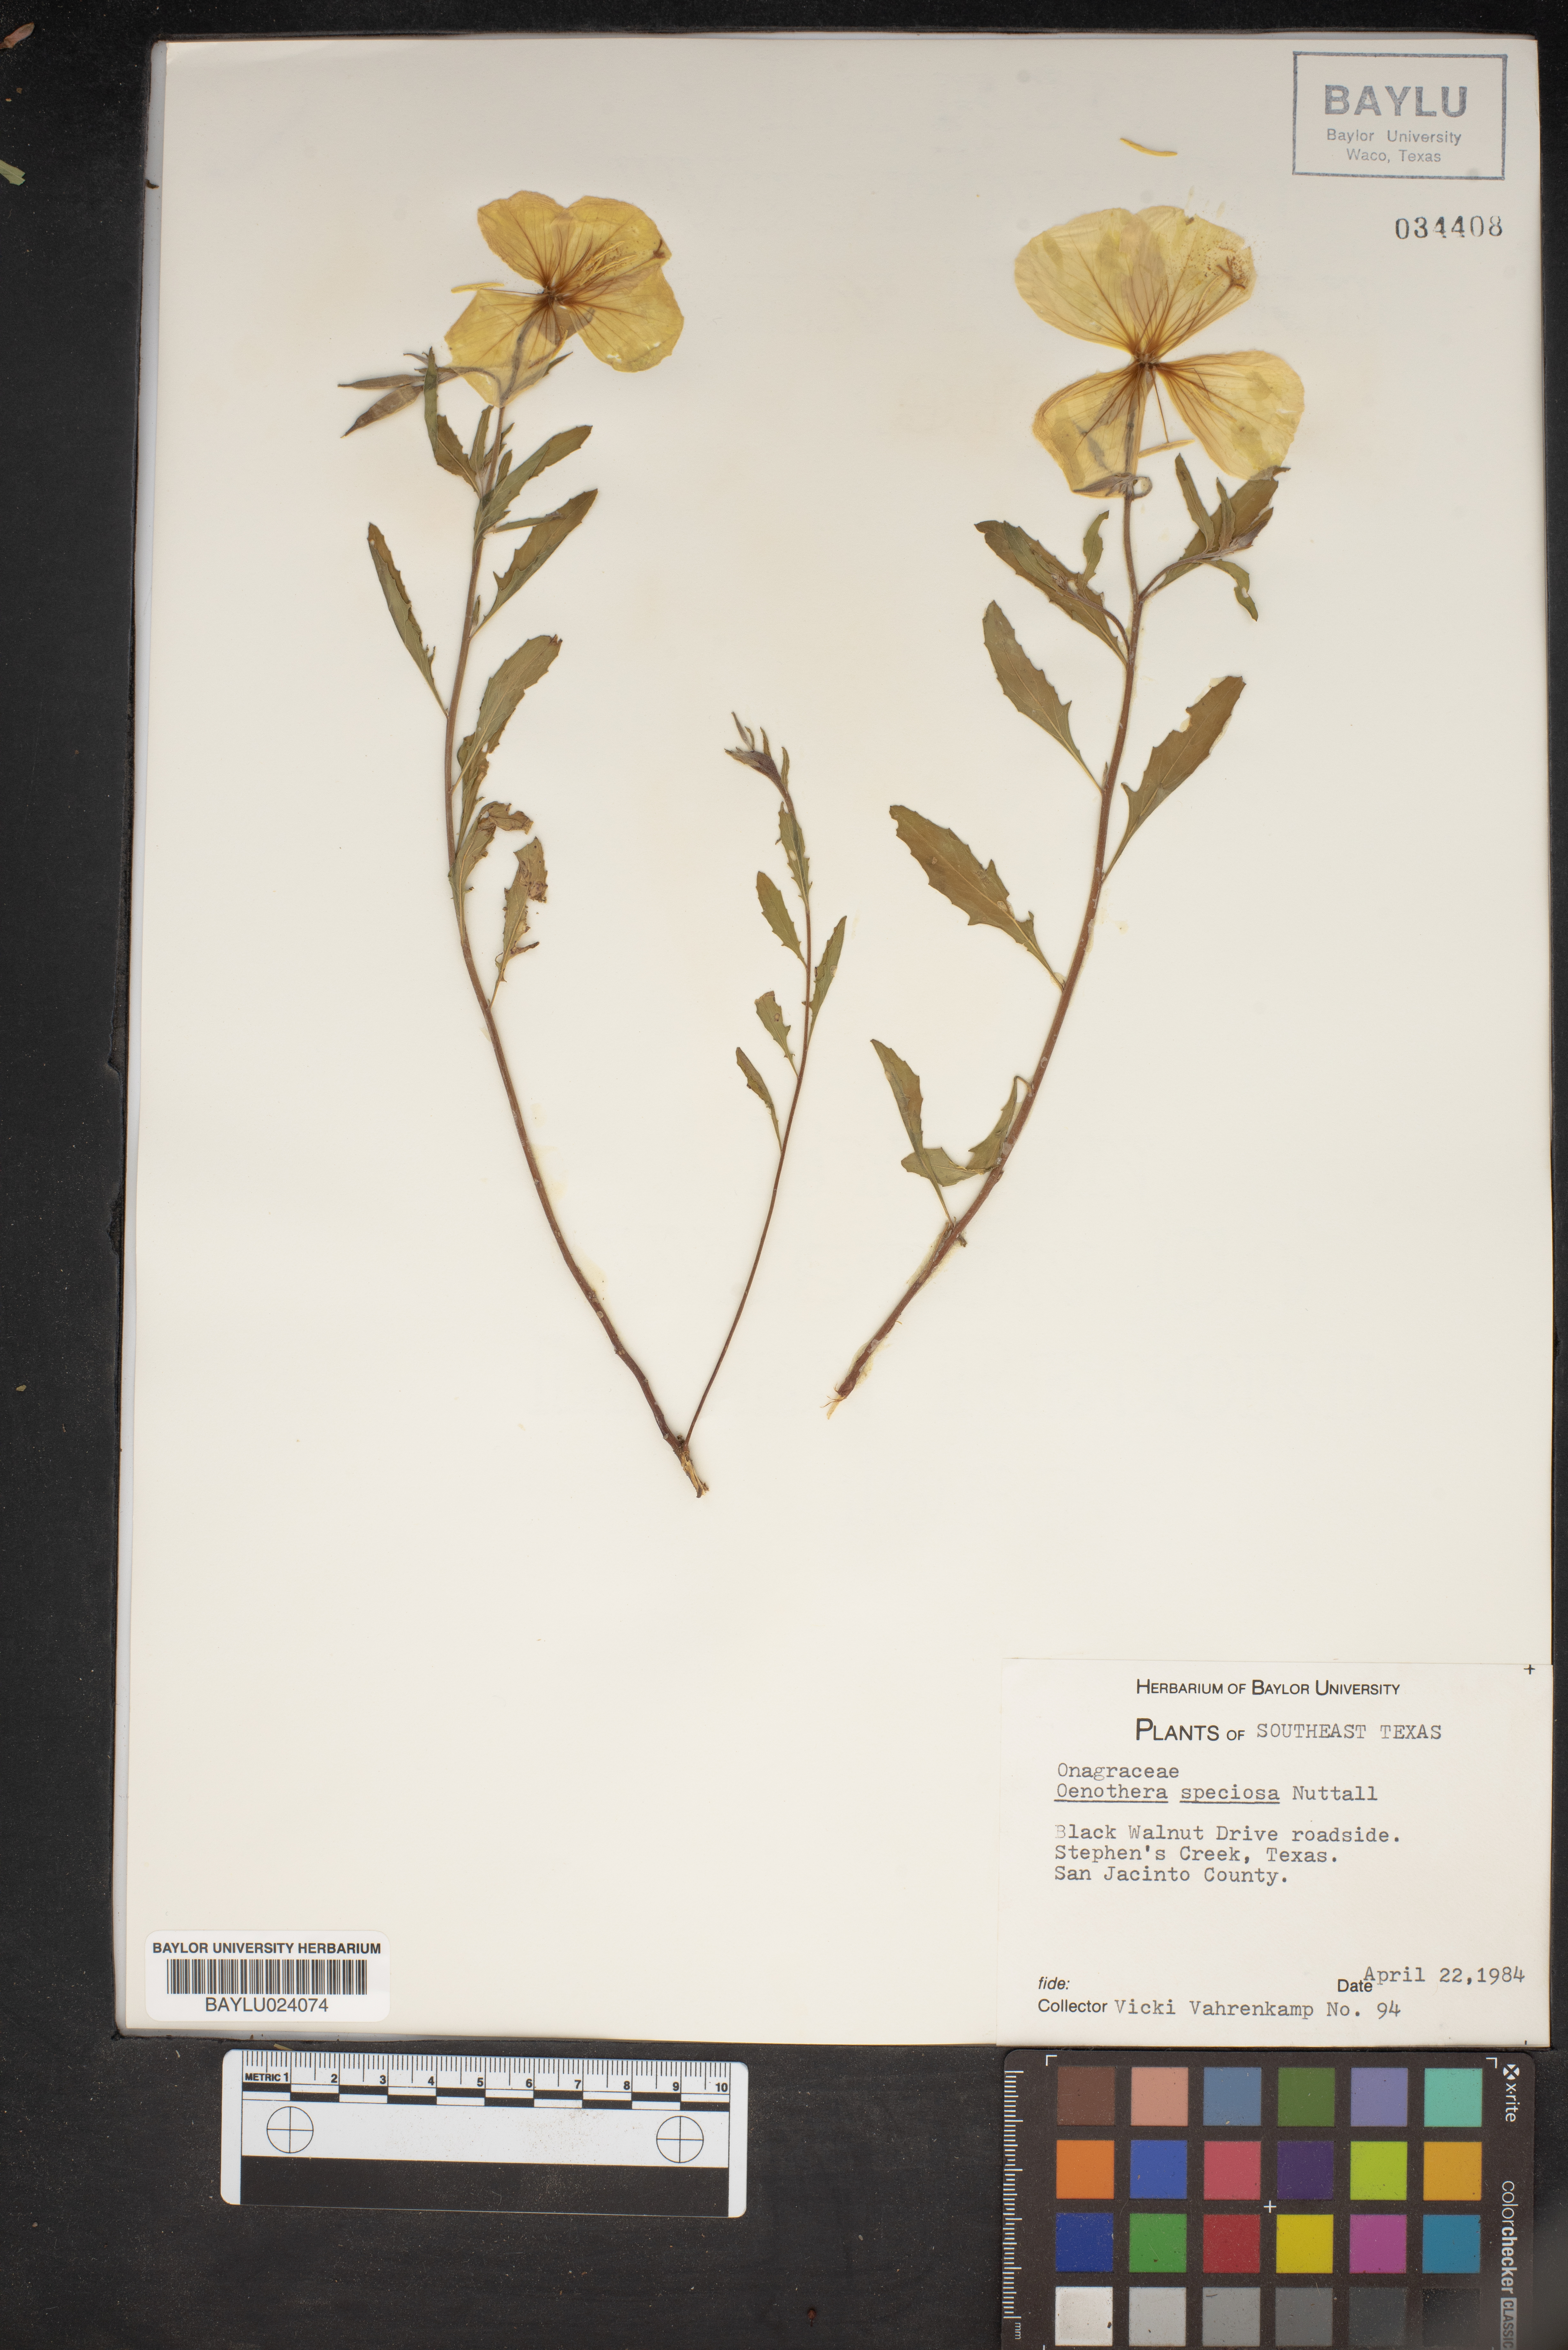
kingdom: Plantae
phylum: Tracheophyta
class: Magnoliopsida
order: Myrtales
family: Onagraceae
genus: Oenothera
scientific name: Oenothera speciosa
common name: White evening-primrose
